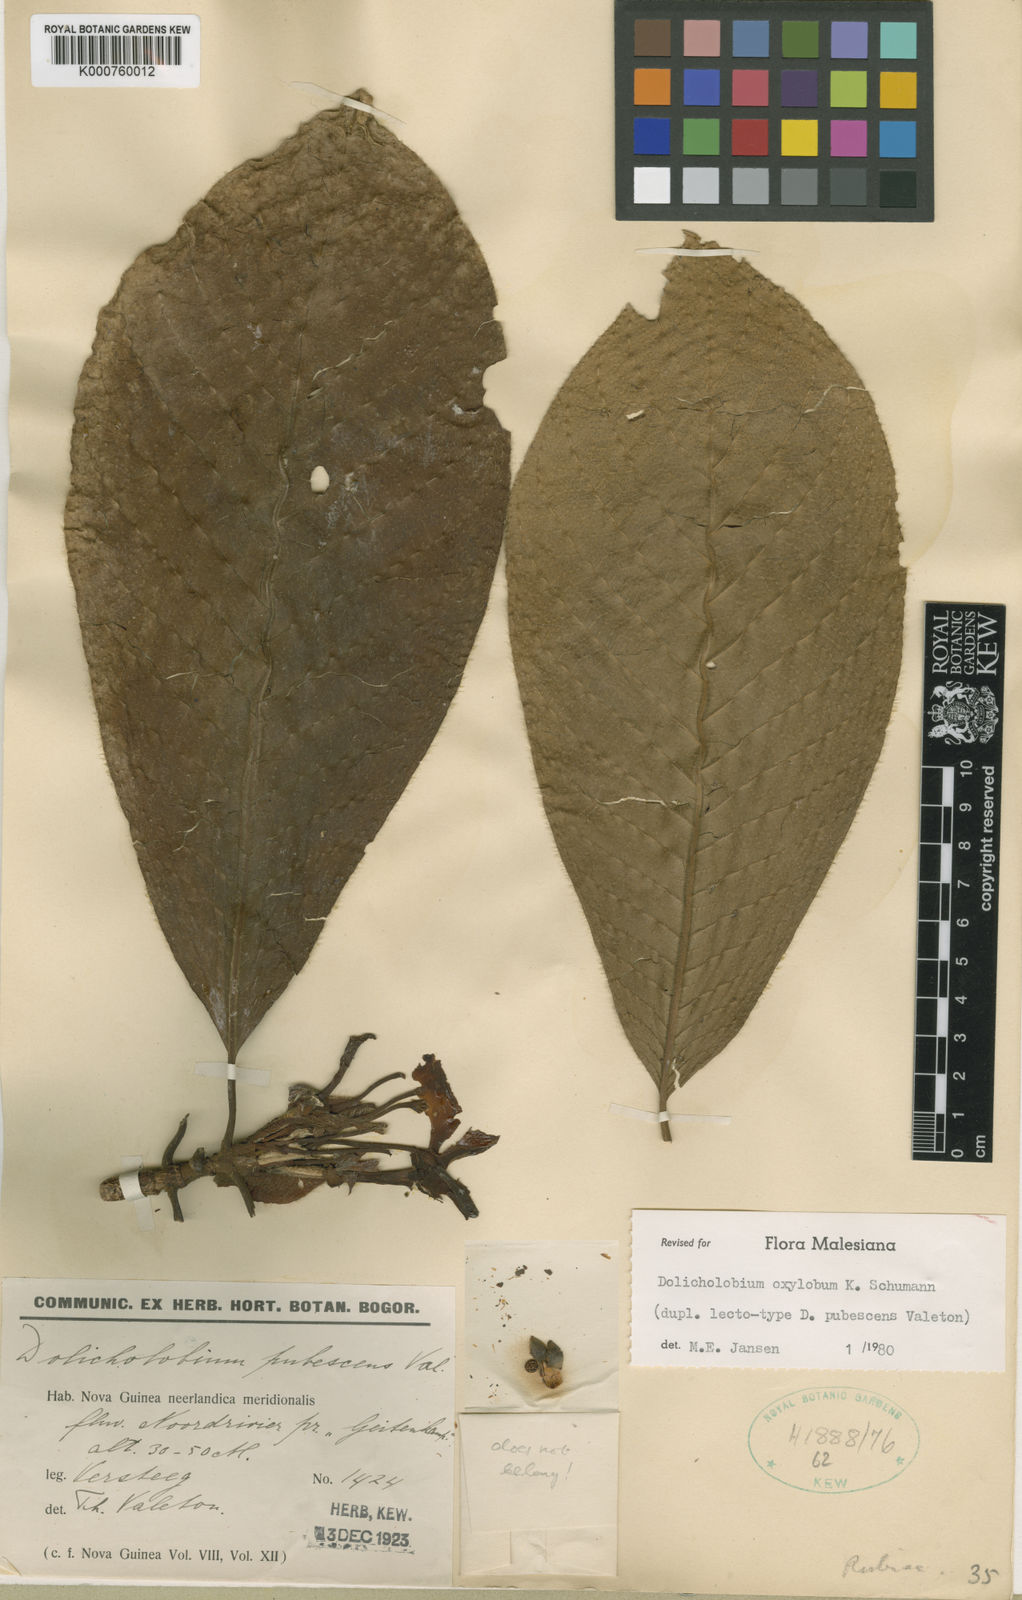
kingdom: Plantae
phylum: Tracheophyta
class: Magnoliopsida
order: Gentianales
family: Rubiaceae
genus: Dolicholobium
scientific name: Dolicholobium oxylobum
